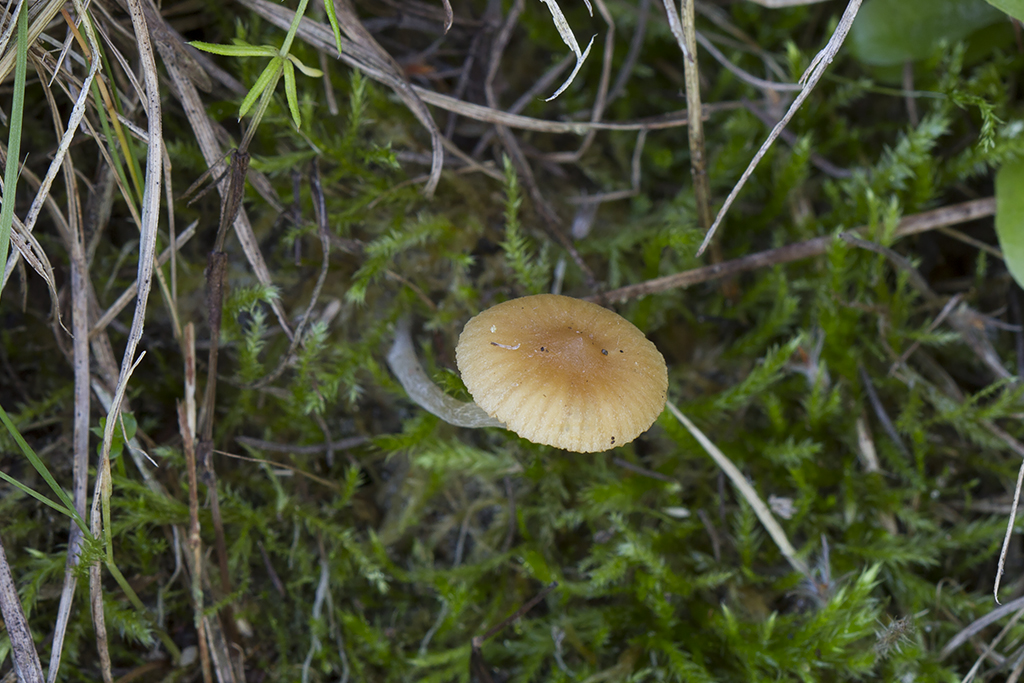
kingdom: Fungi
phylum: Basidiomycota
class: Agaricomycetes
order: Agaricales
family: Hymenogastraceae
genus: Galerina
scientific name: Galerina graminea
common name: plæne-hjelmhat
